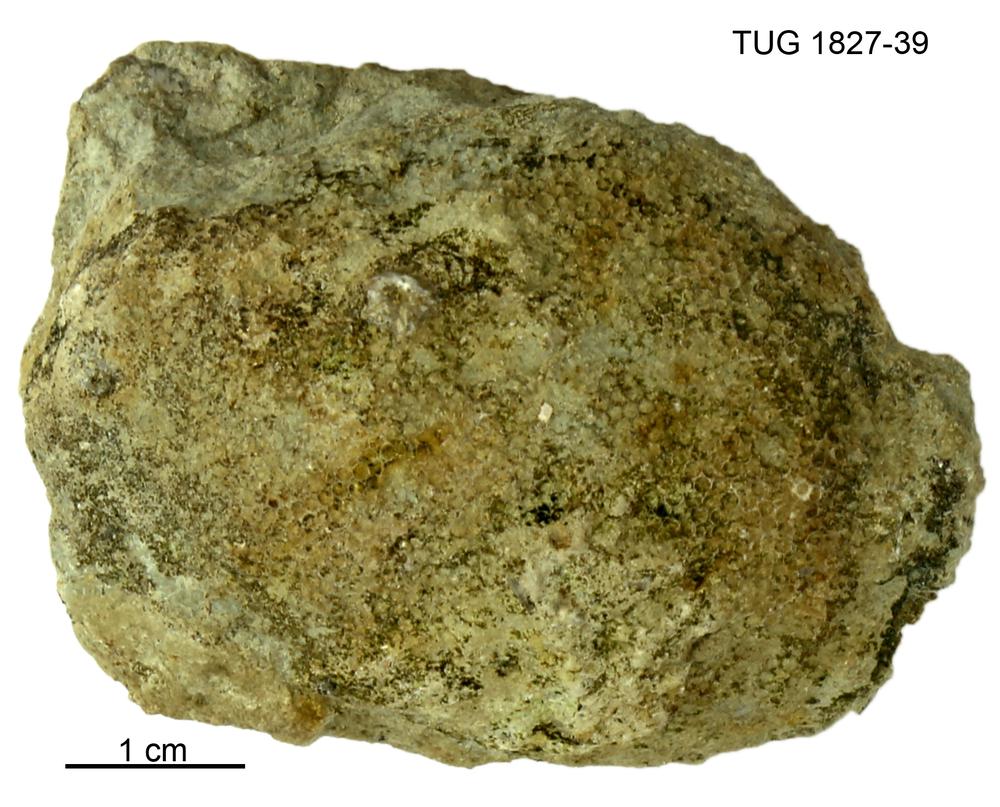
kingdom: Animalia
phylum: Cnidaria
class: Anthozoa
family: Favositidae
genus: Paleofavosites
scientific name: Paleofavosites
